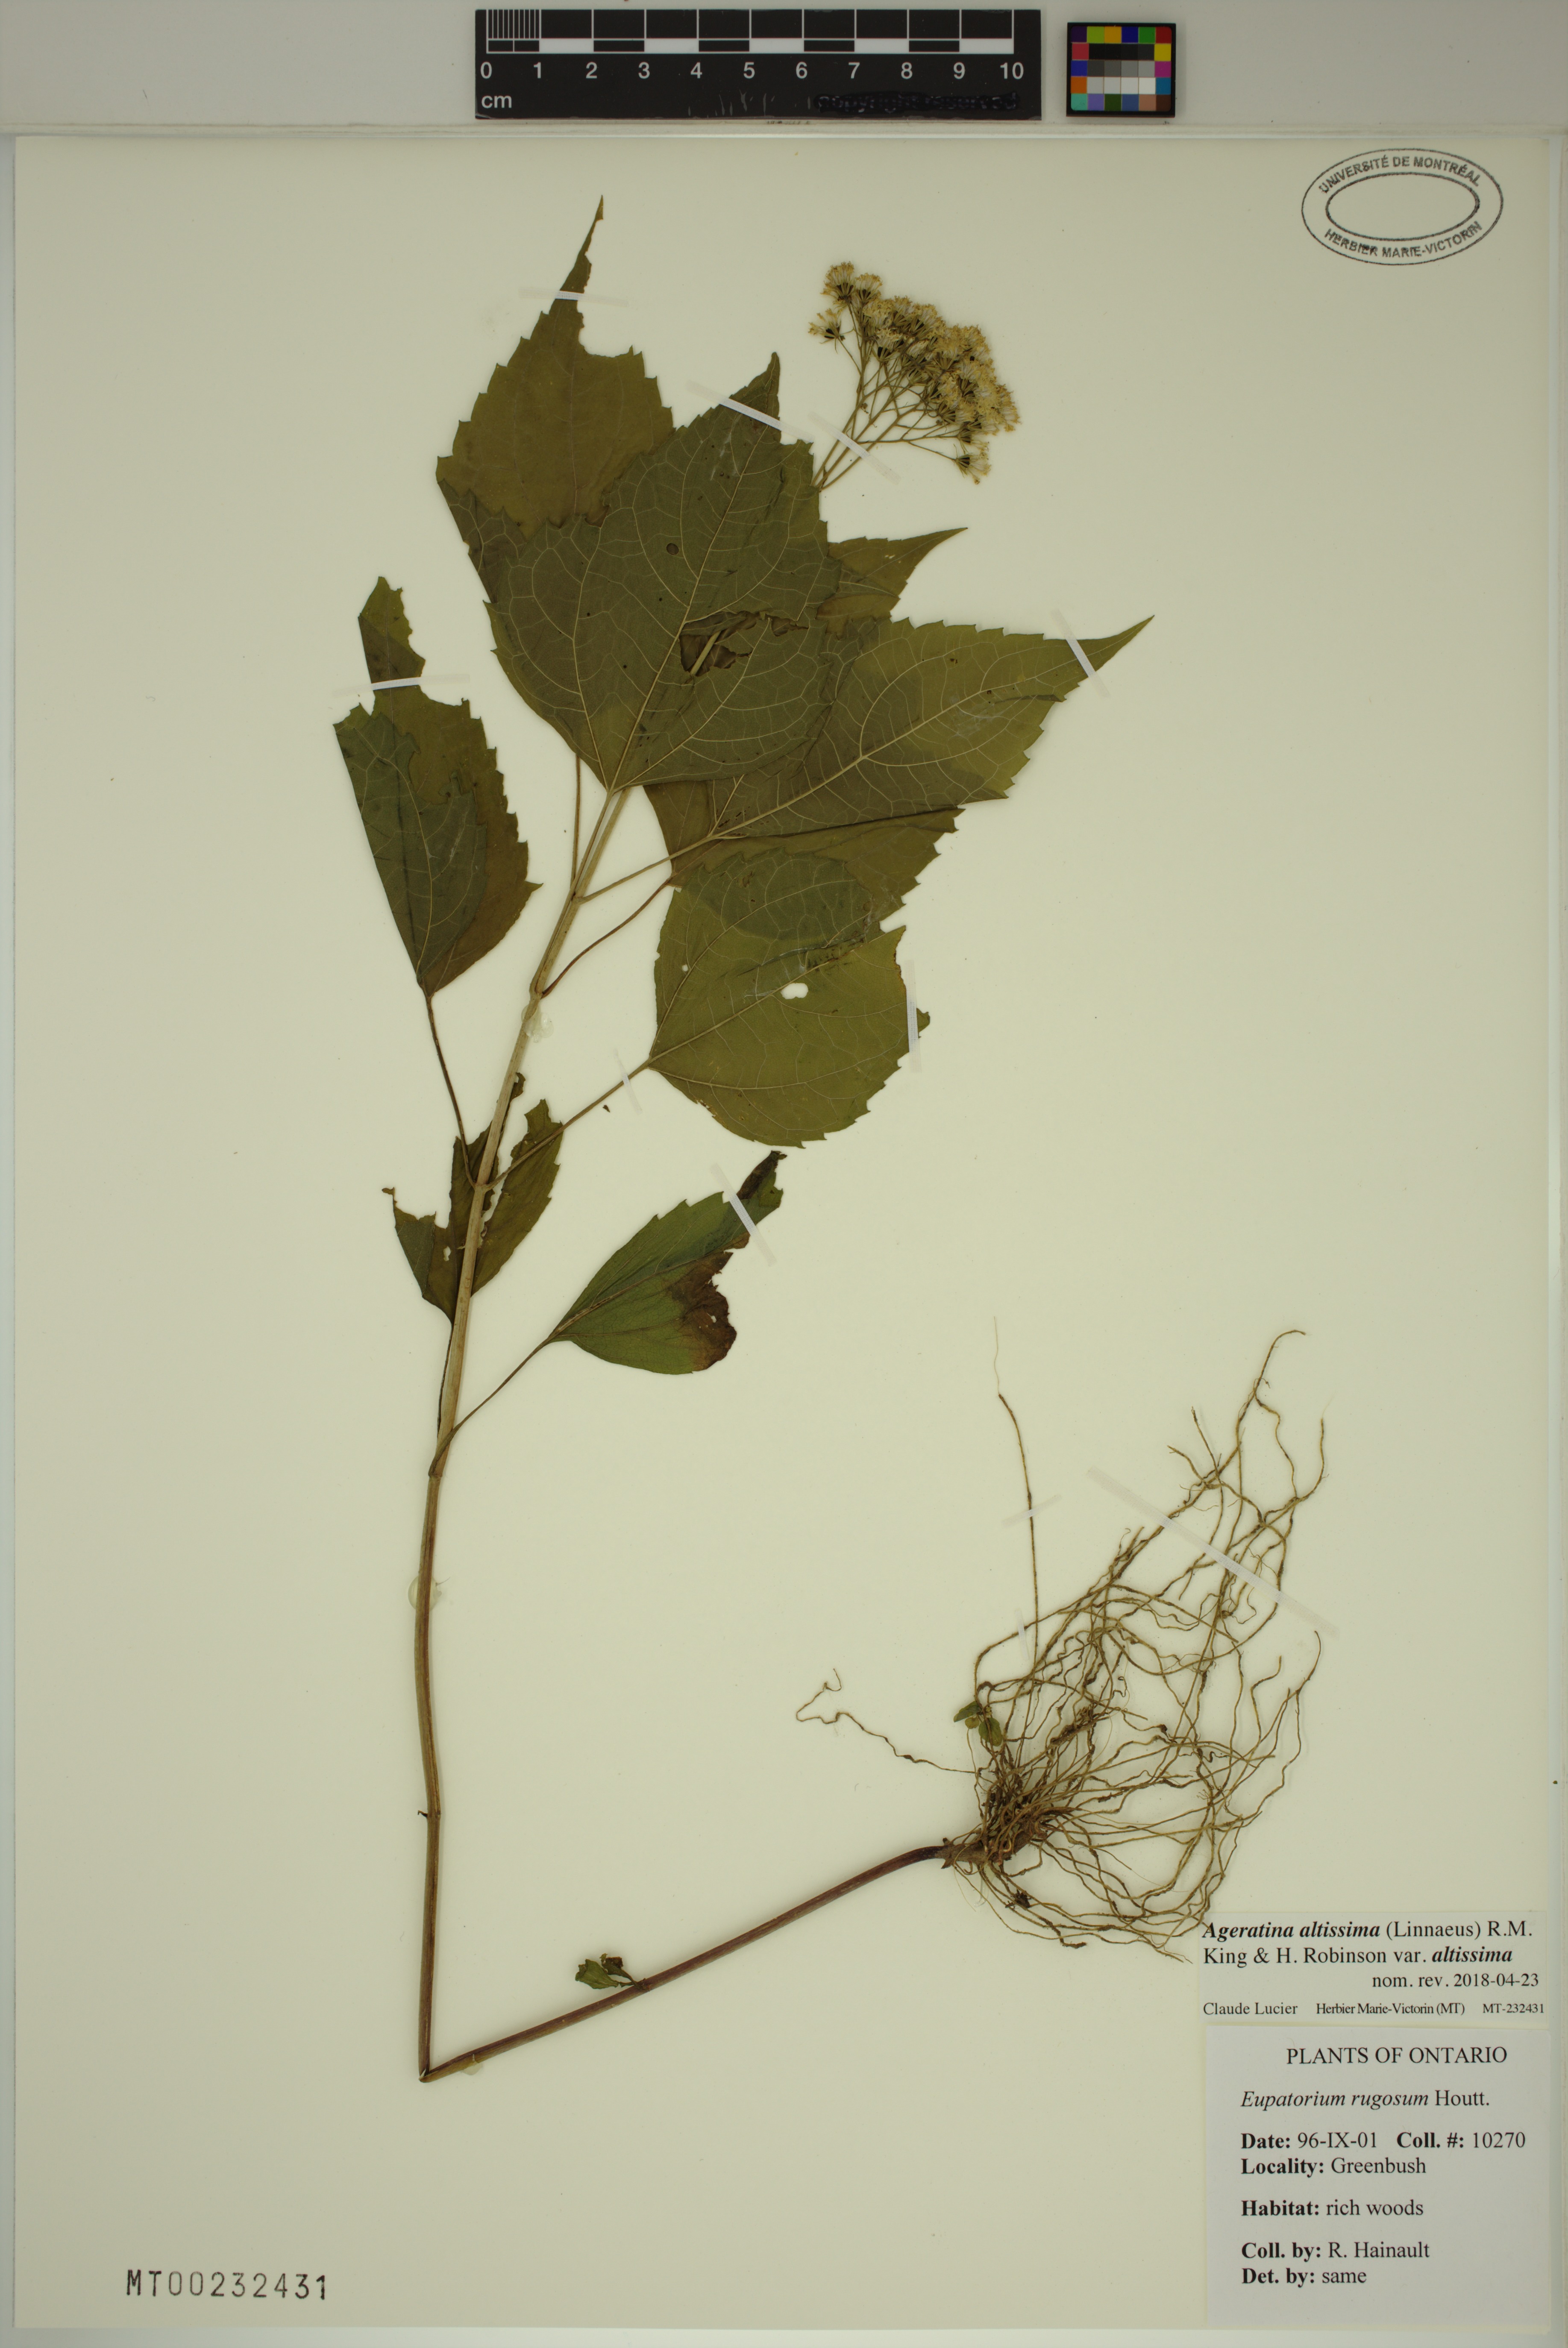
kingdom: Plantae
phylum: Tracheophyta
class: Magnoliopsida
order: Asterales
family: Asteraceae
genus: Ageratina
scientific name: Ageratina altissima
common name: White snakeroot
